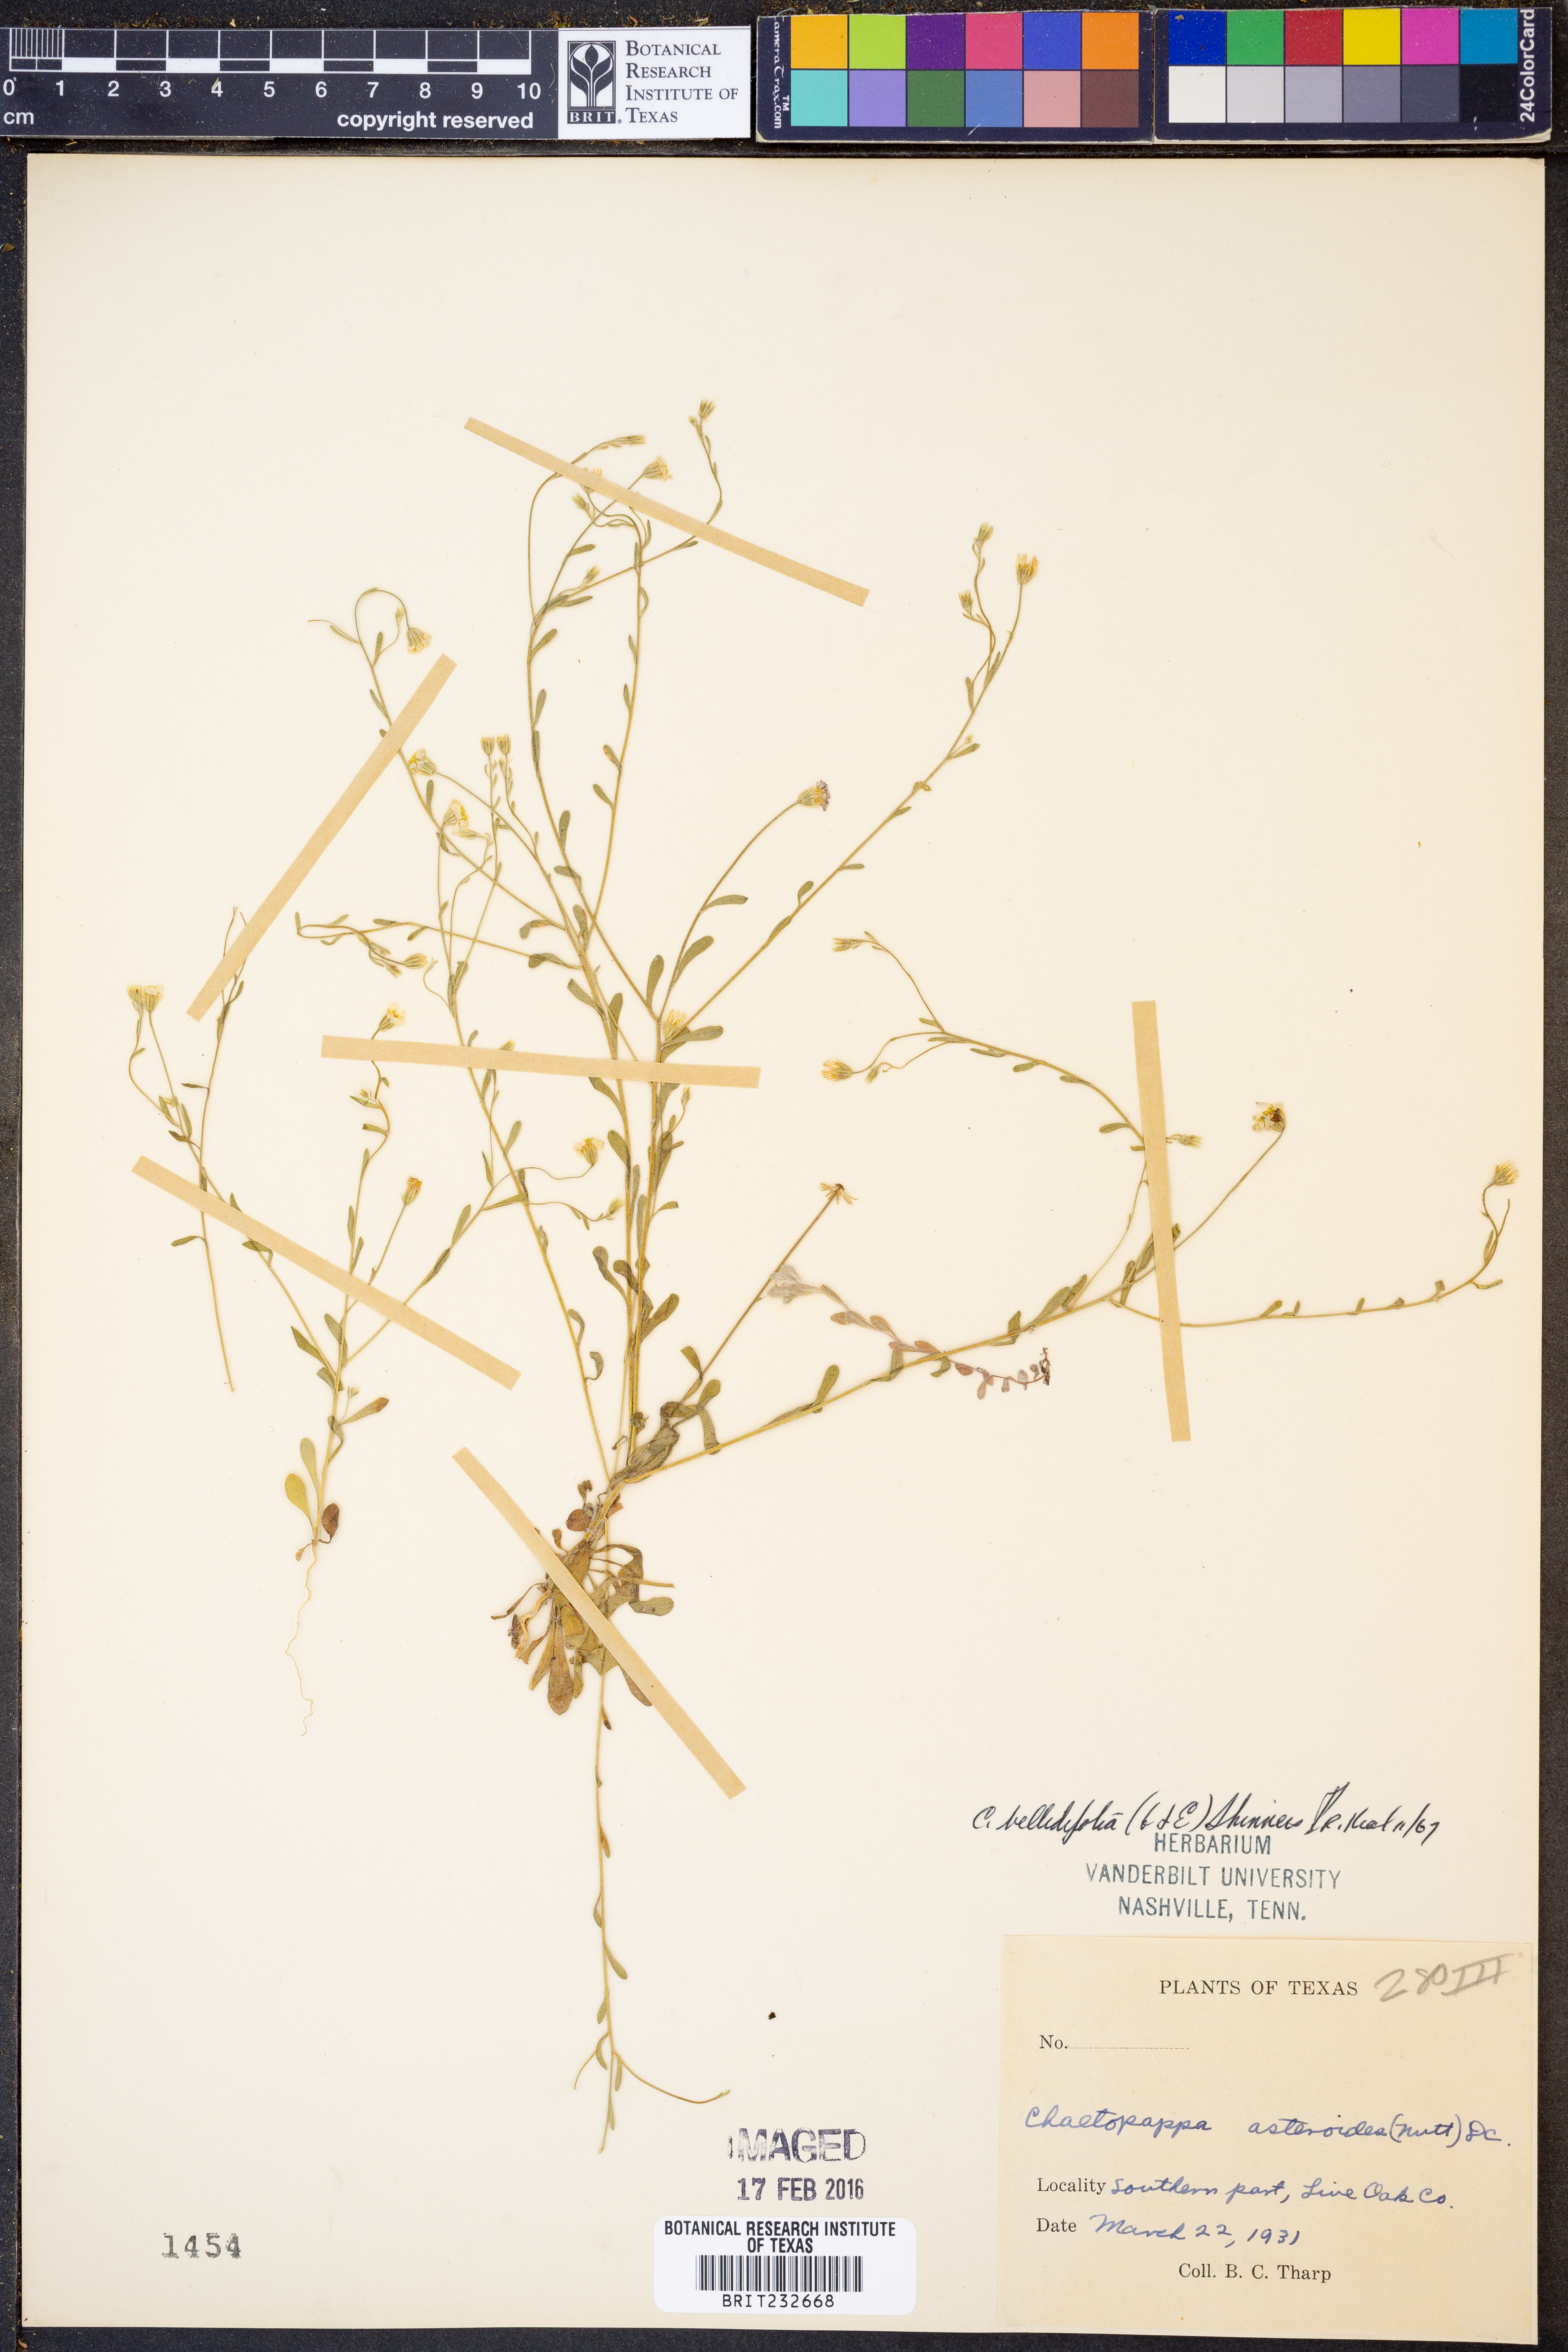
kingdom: Plantae
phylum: Tracheophyta
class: Magnoliopsida
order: Asterales
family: Asteraceae
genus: Chaetopappa
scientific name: Chaetopappa bellidifolia
